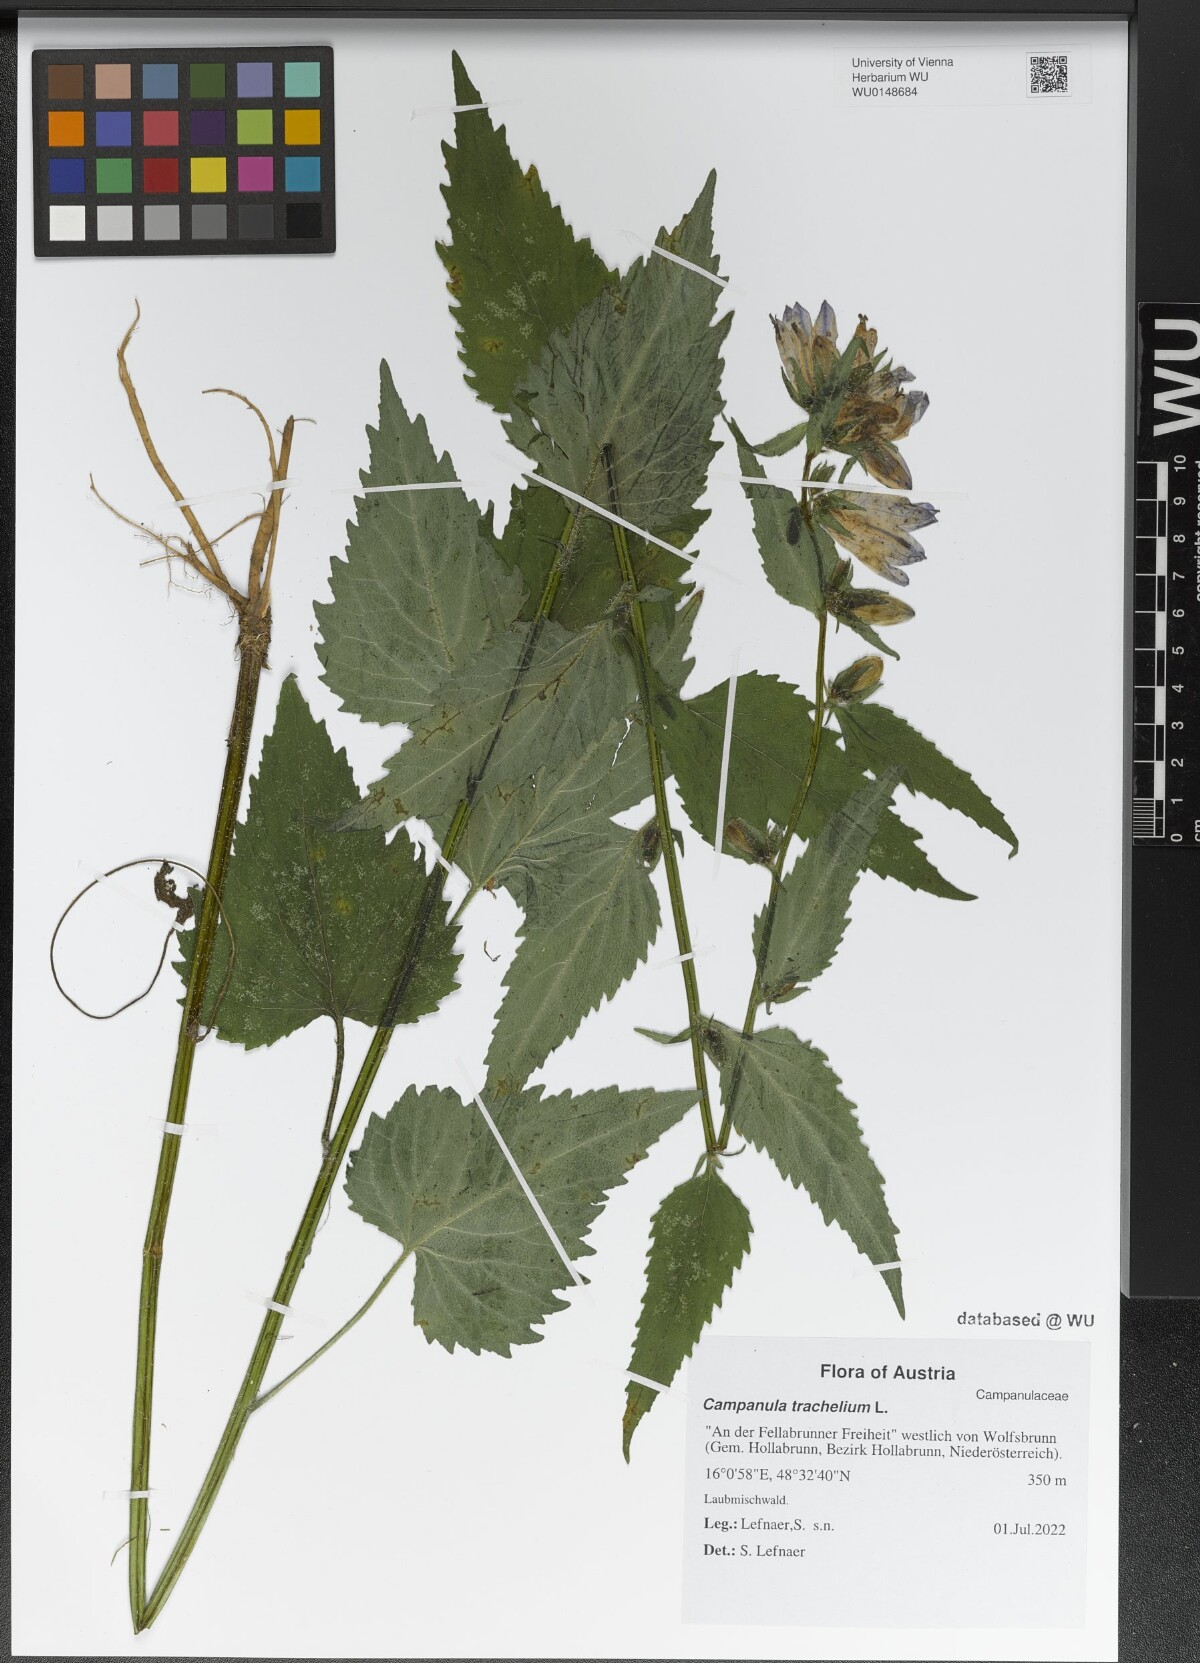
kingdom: Plantae
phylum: Tracheophyta
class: Magnoliopsida
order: Asterales
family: Campanulaceae
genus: Campanula
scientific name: Campanula trachelium
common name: Nettle-leaved bellflower
